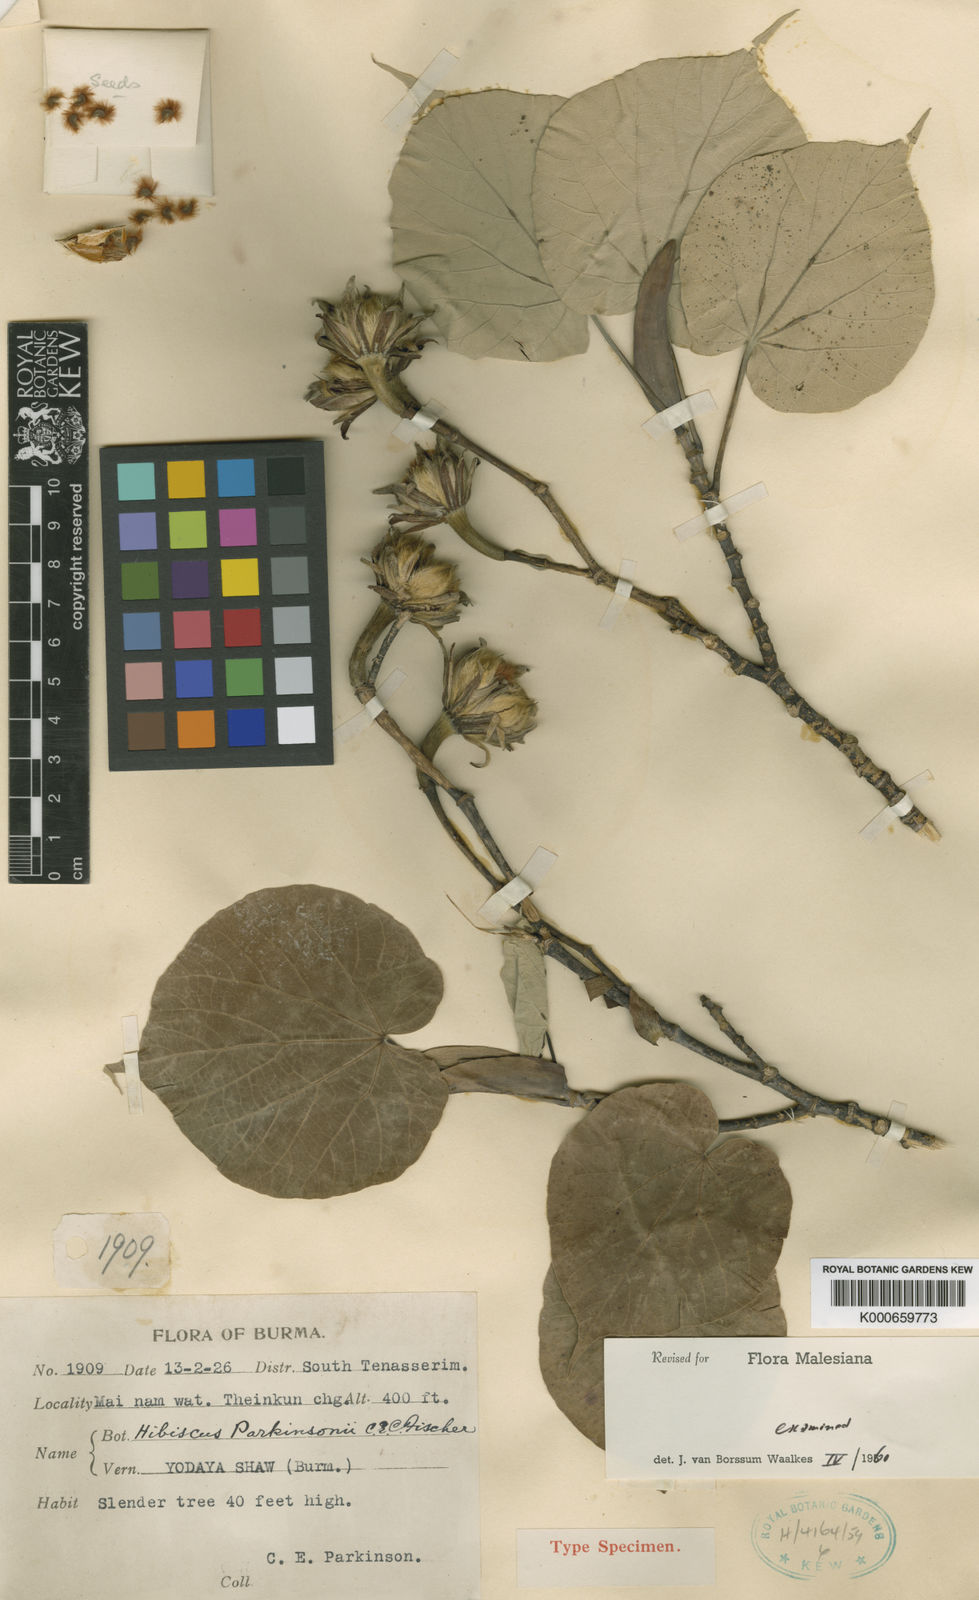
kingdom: Plantae
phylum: Tracheophyta
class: Magnoliopsida
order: Malvales
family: Malvaceae
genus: Hibiscus
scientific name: Hibiscus parkinsonii
